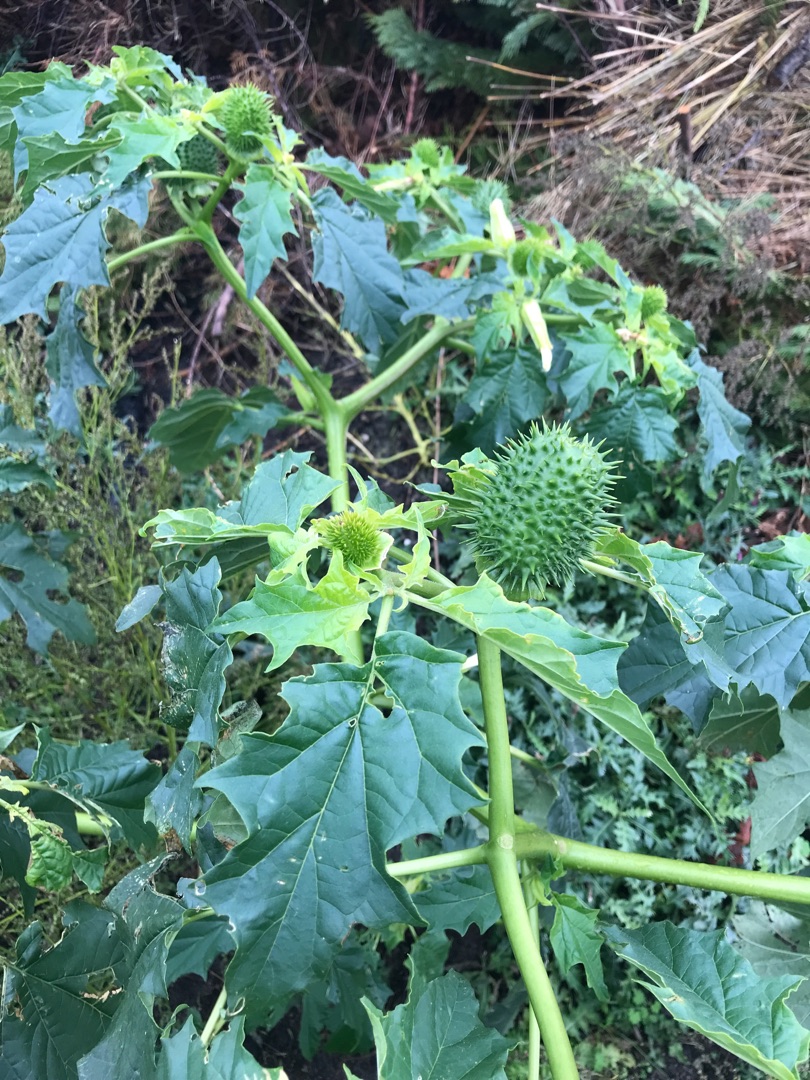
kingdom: Plantae
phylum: Tracheophyta
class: Magnoliopsida
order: Solanales
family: Solanaceae
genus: Datura
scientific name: Datura stramonium
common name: Pigæble
